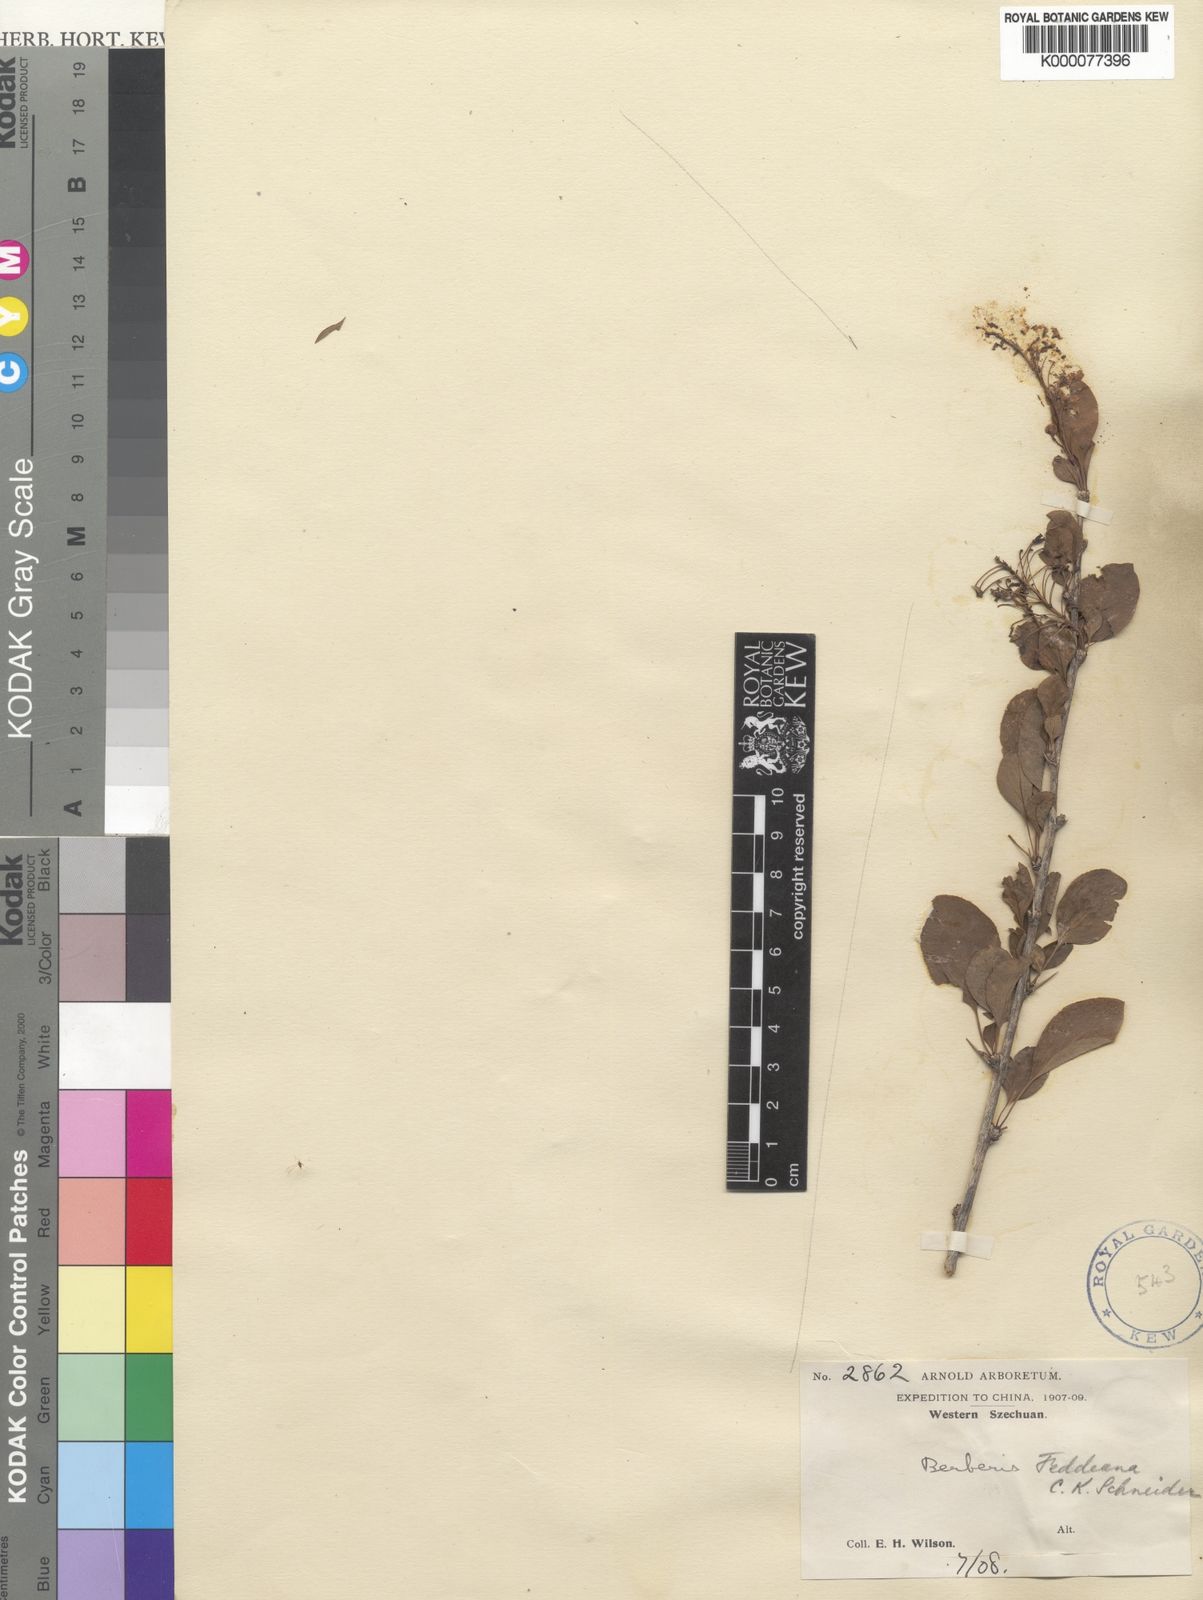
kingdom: Plantae
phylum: Tracheophyta
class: Magnoliopsida
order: Ranunculales
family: Berberidaceae
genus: Berberis
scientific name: Berberis henryana
